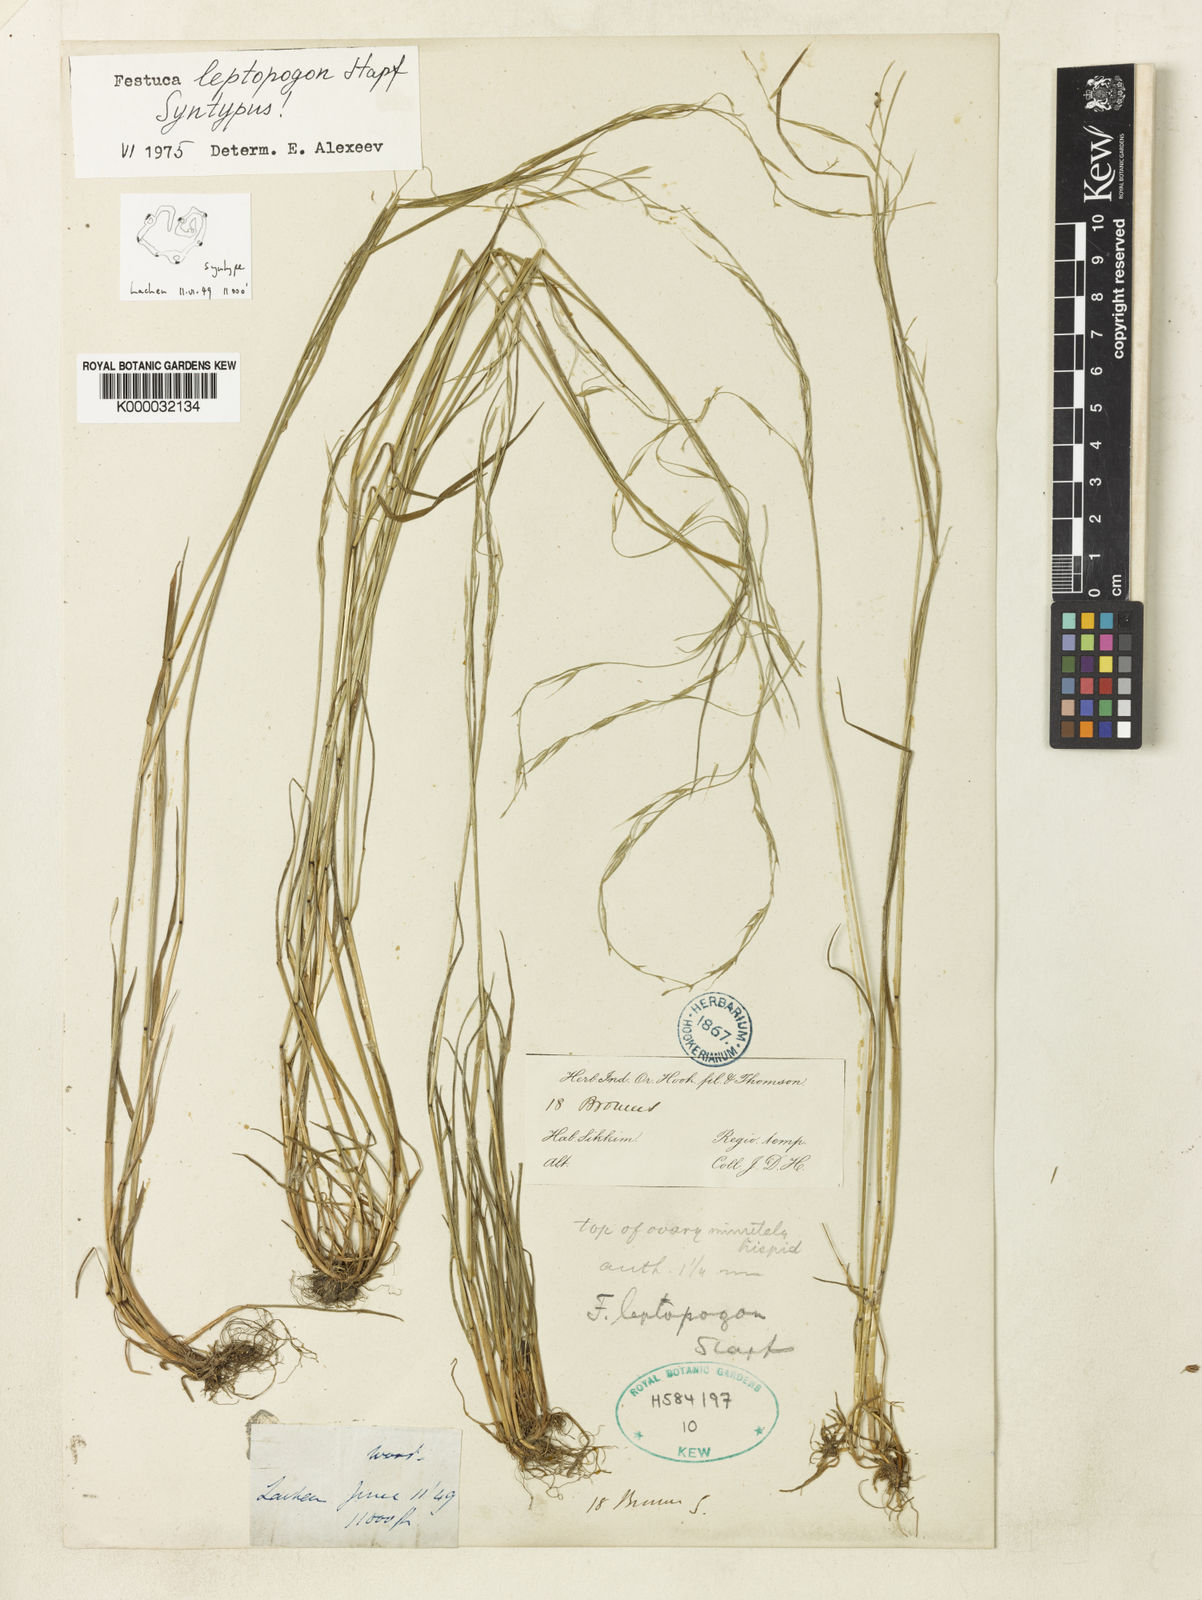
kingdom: Plantae
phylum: Tracheophyta
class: Liliopsida
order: Poales
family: Poaceae
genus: Festuca
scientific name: Festuca leptopogon
